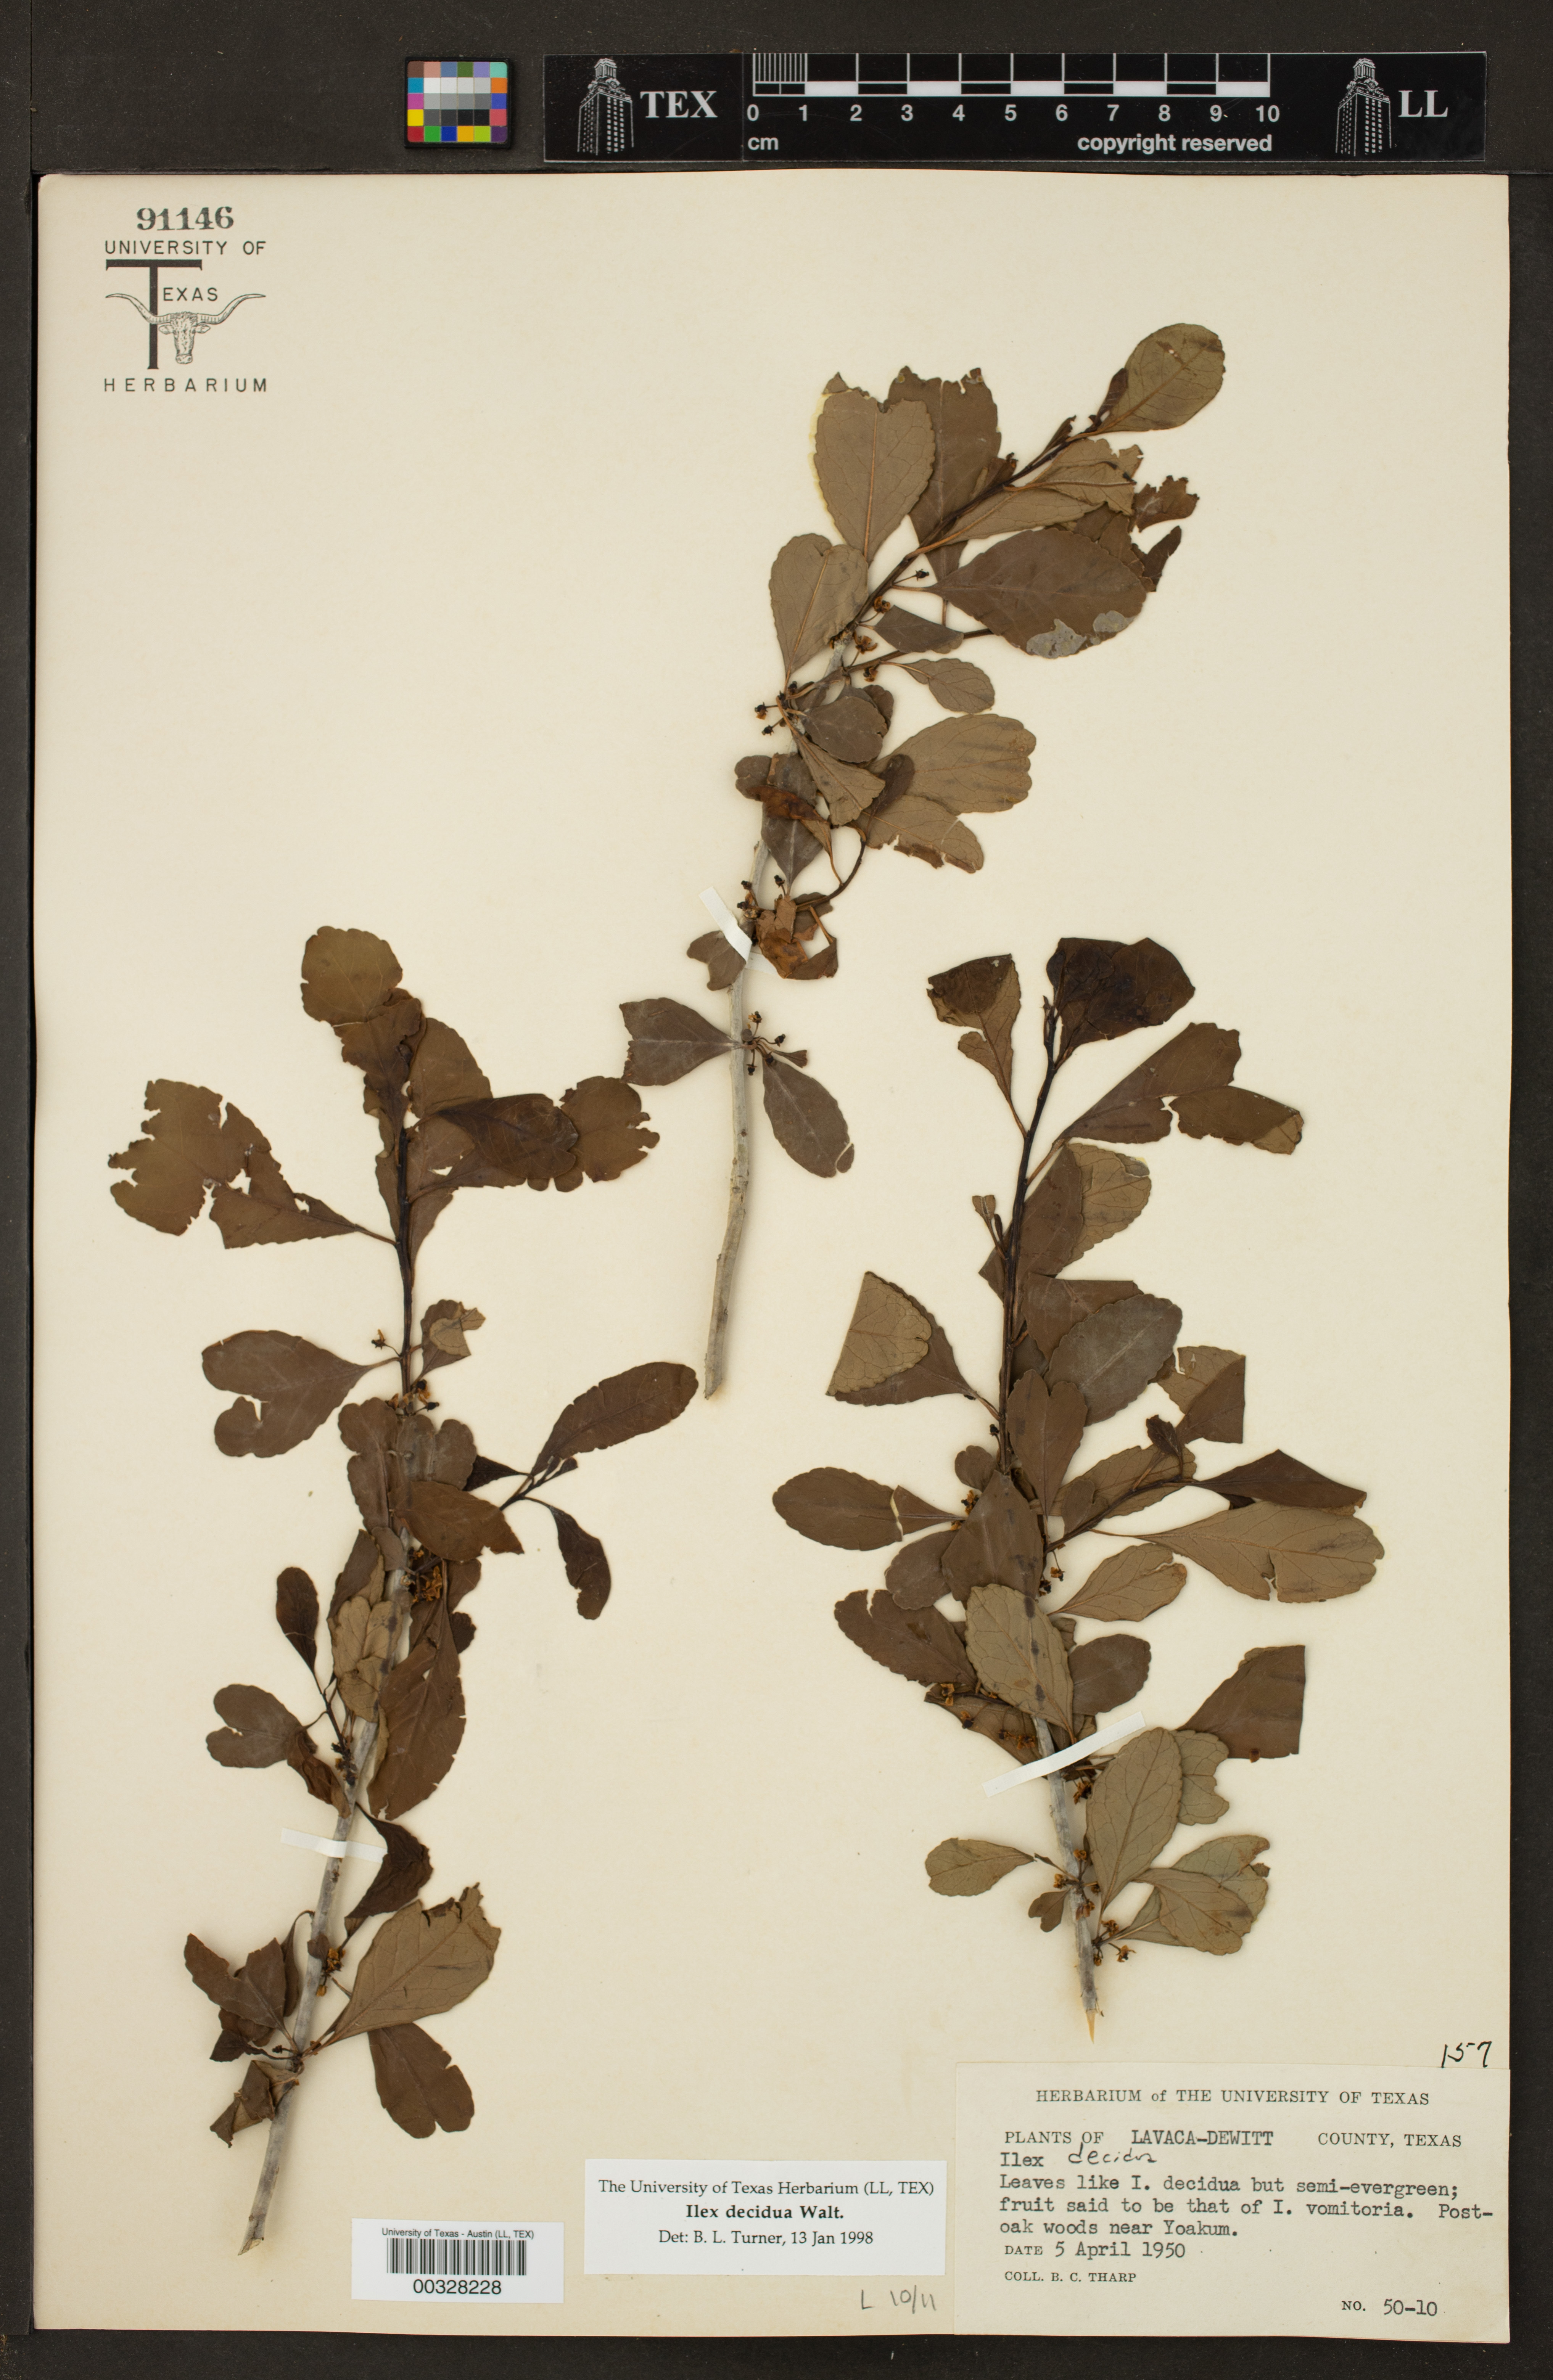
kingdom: Plantae
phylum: Tracheophyta
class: Magnoliopsida
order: Aquifoliales
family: Aquifoliaceae
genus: Ilex
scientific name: Ilex decidua
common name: Possum-haw
